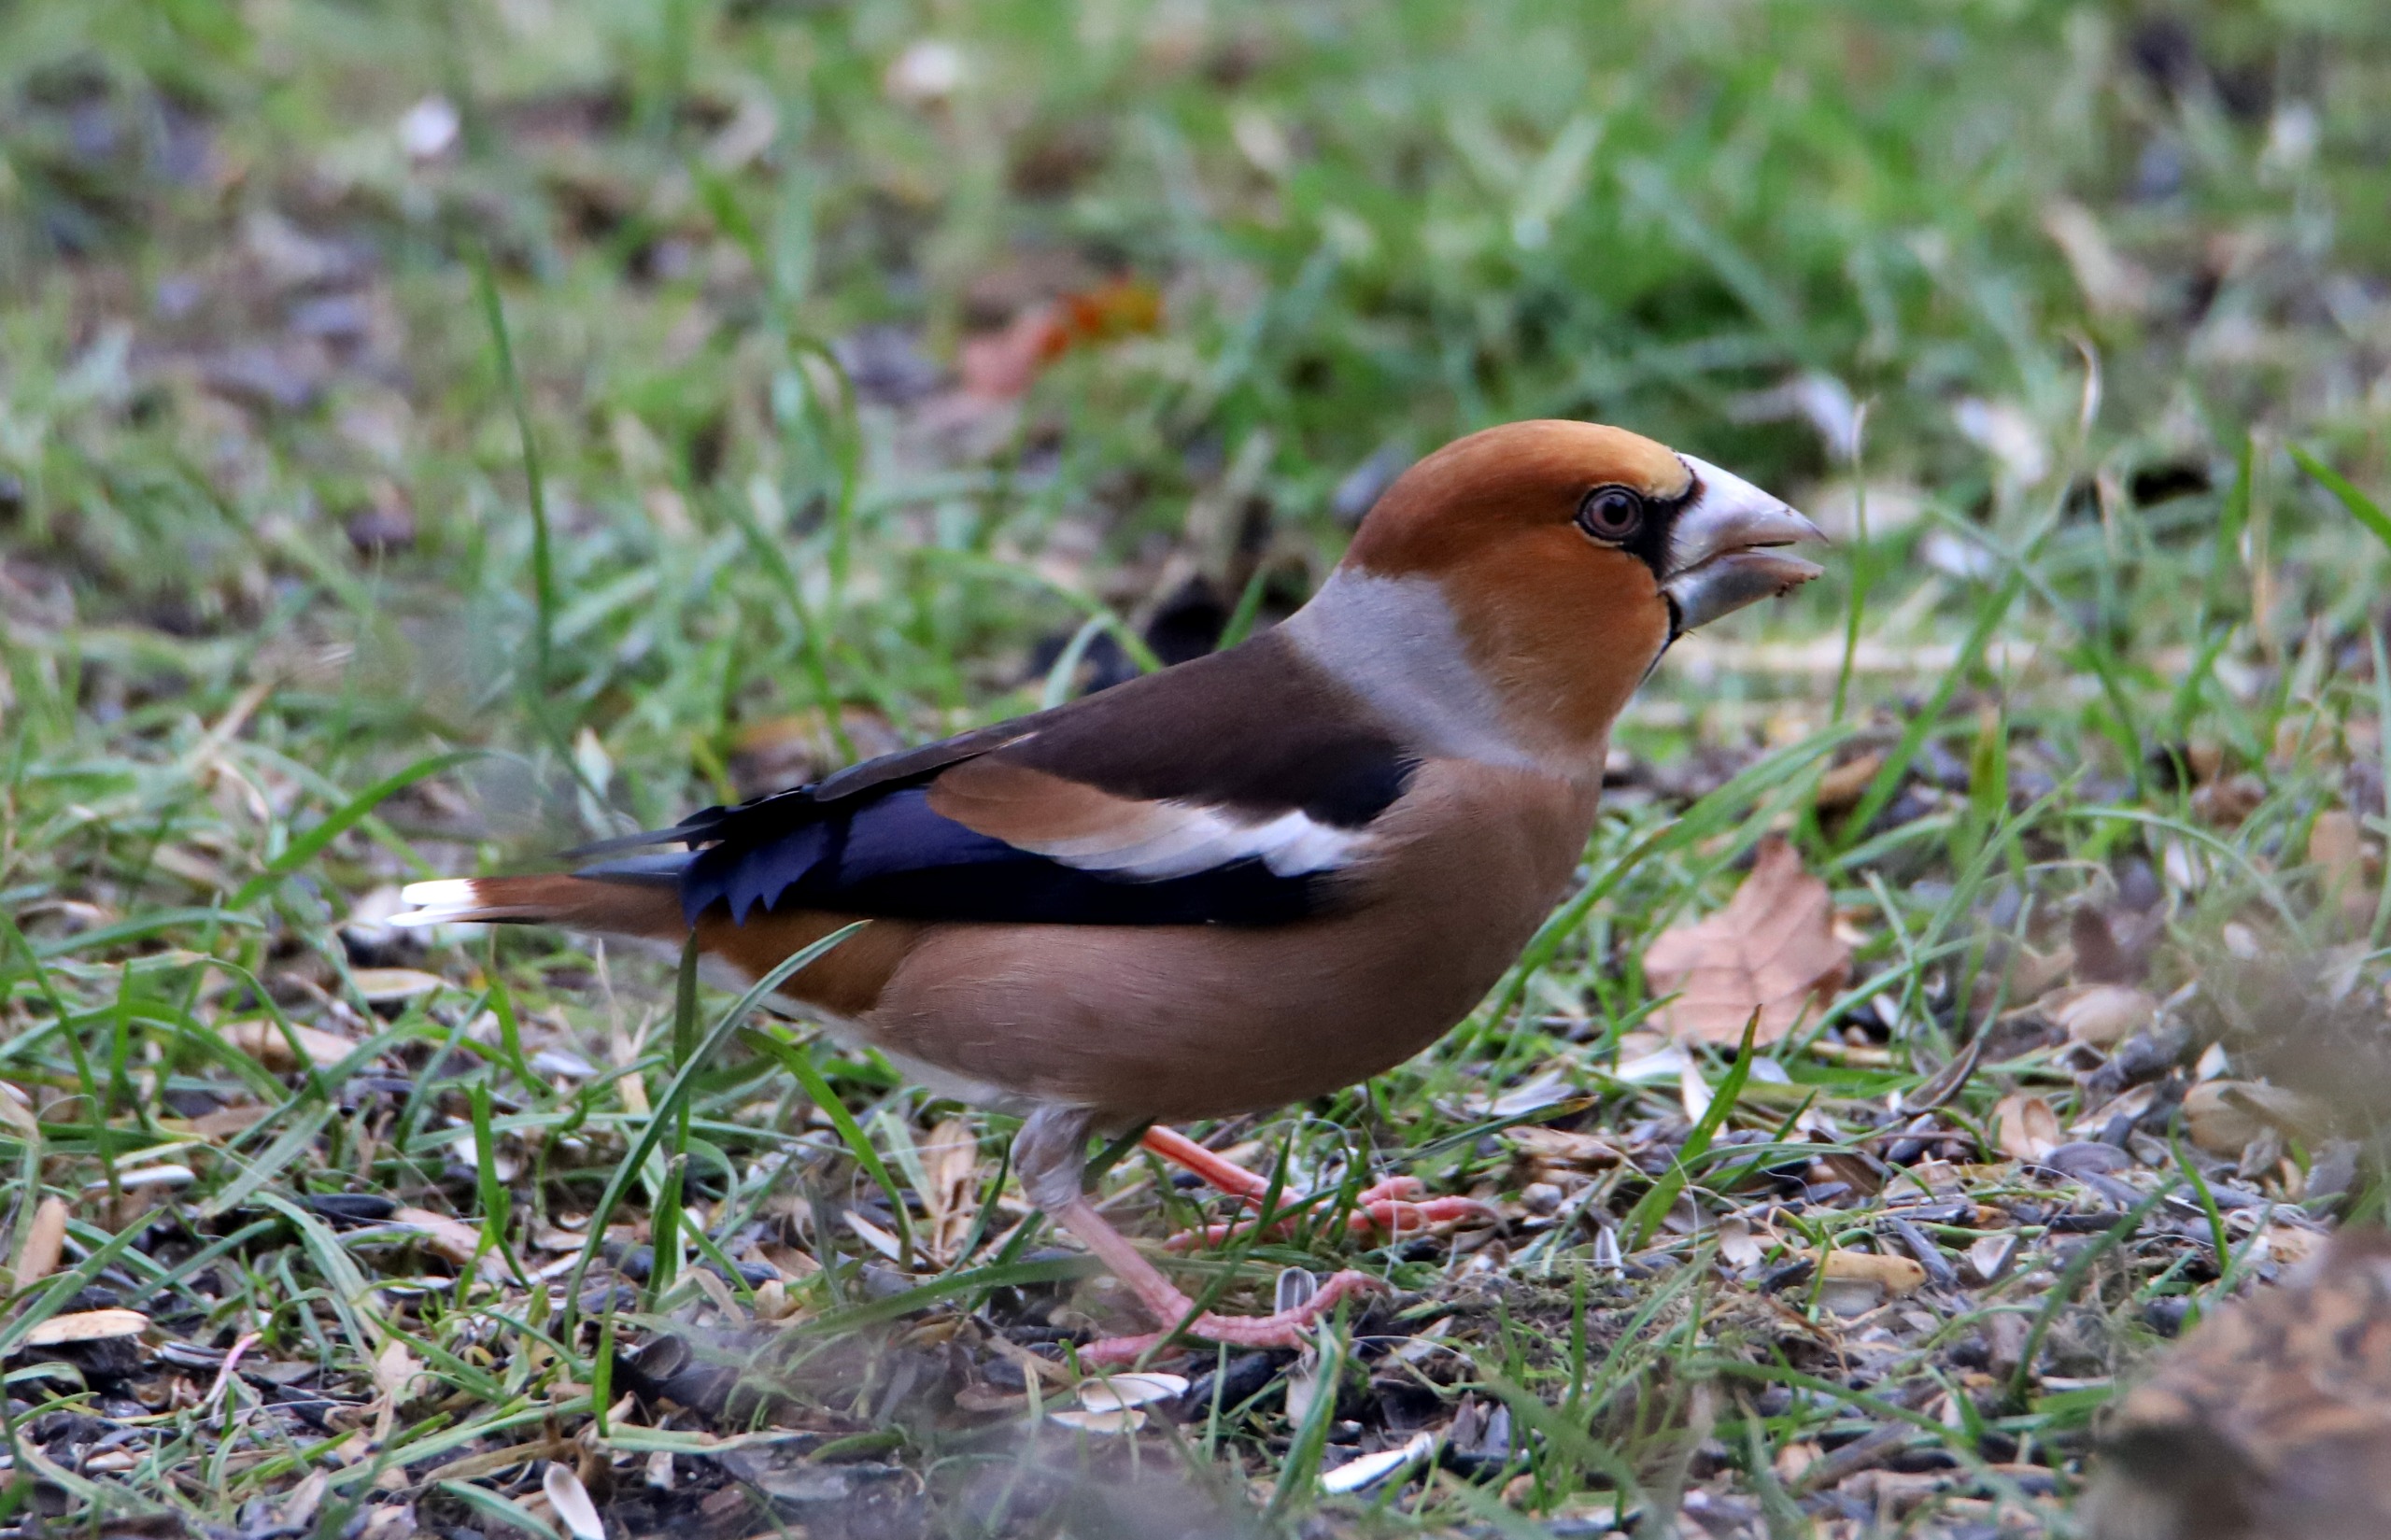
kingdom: Animalia
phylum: Chordata
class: Aves
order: Passeriformes
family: Fringillidae
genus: Coccothraustes
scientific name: Coccothraustes coccothraustes
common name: Kernebider
